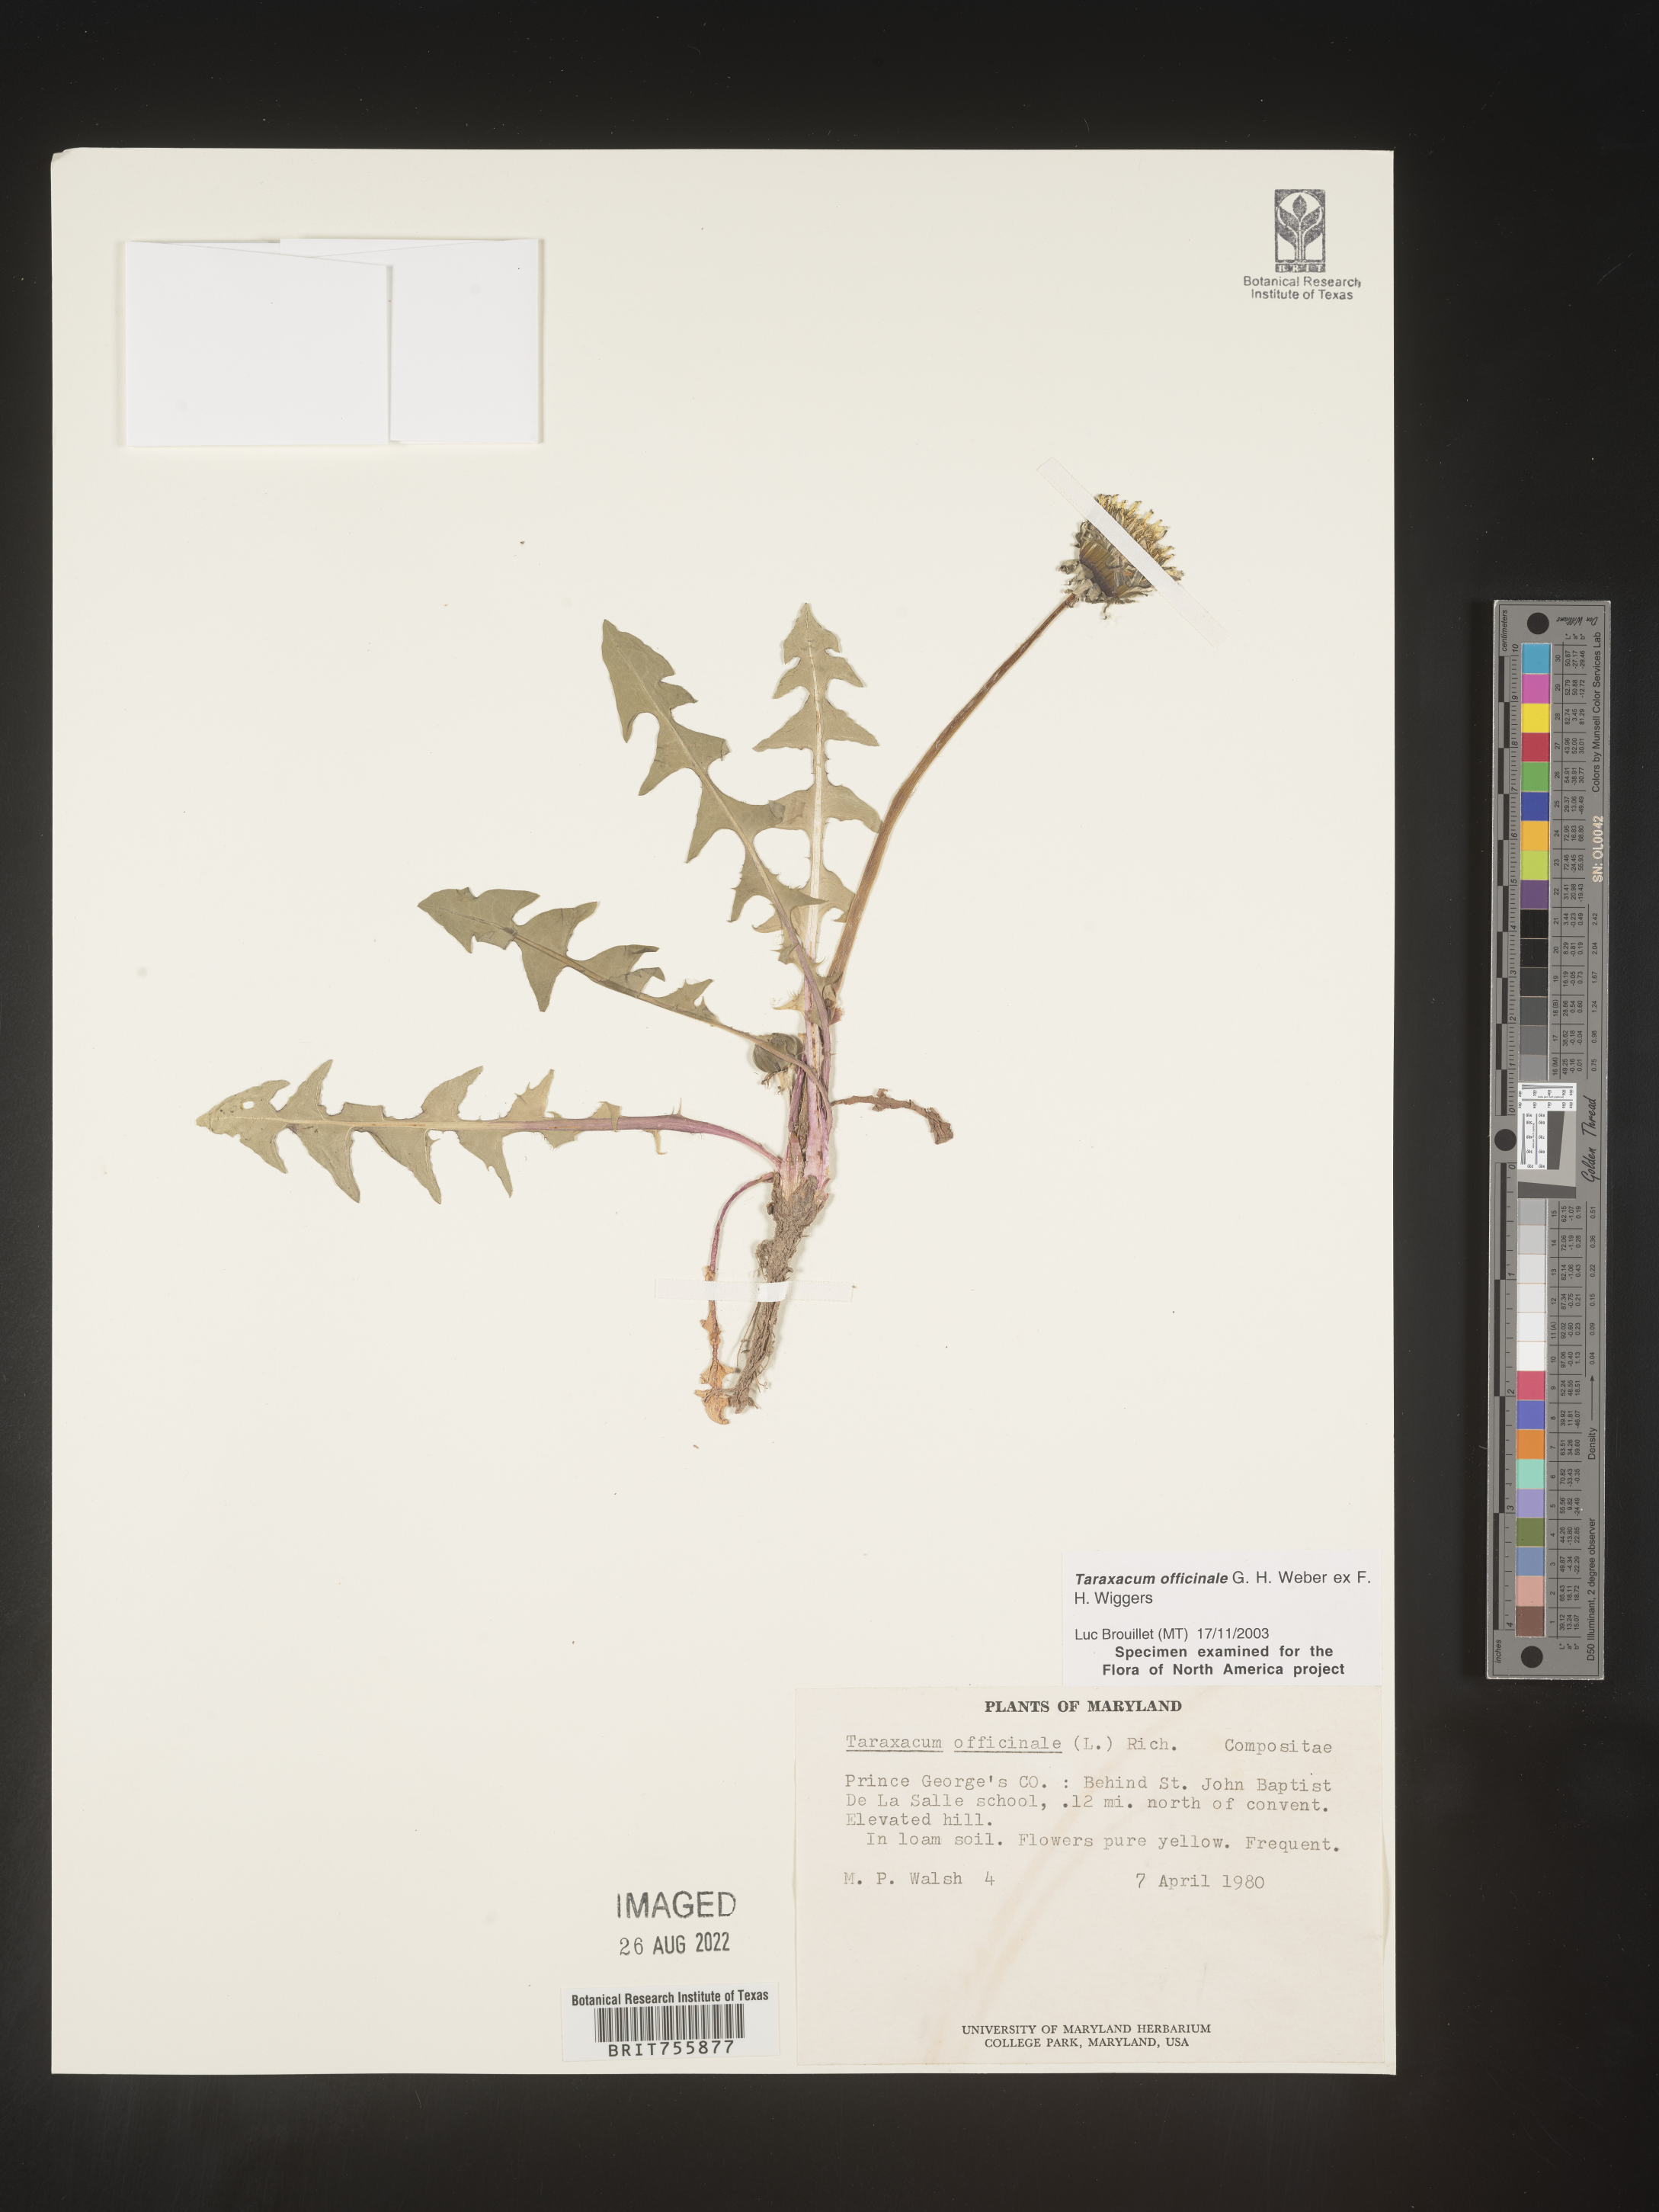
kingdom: Plantae
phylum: Tracheophyta
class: Magnoliopsida
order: Asterales
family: Asteraceae
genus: Taraxacum
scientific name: Taraxacum officinale
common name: Common dandelion
